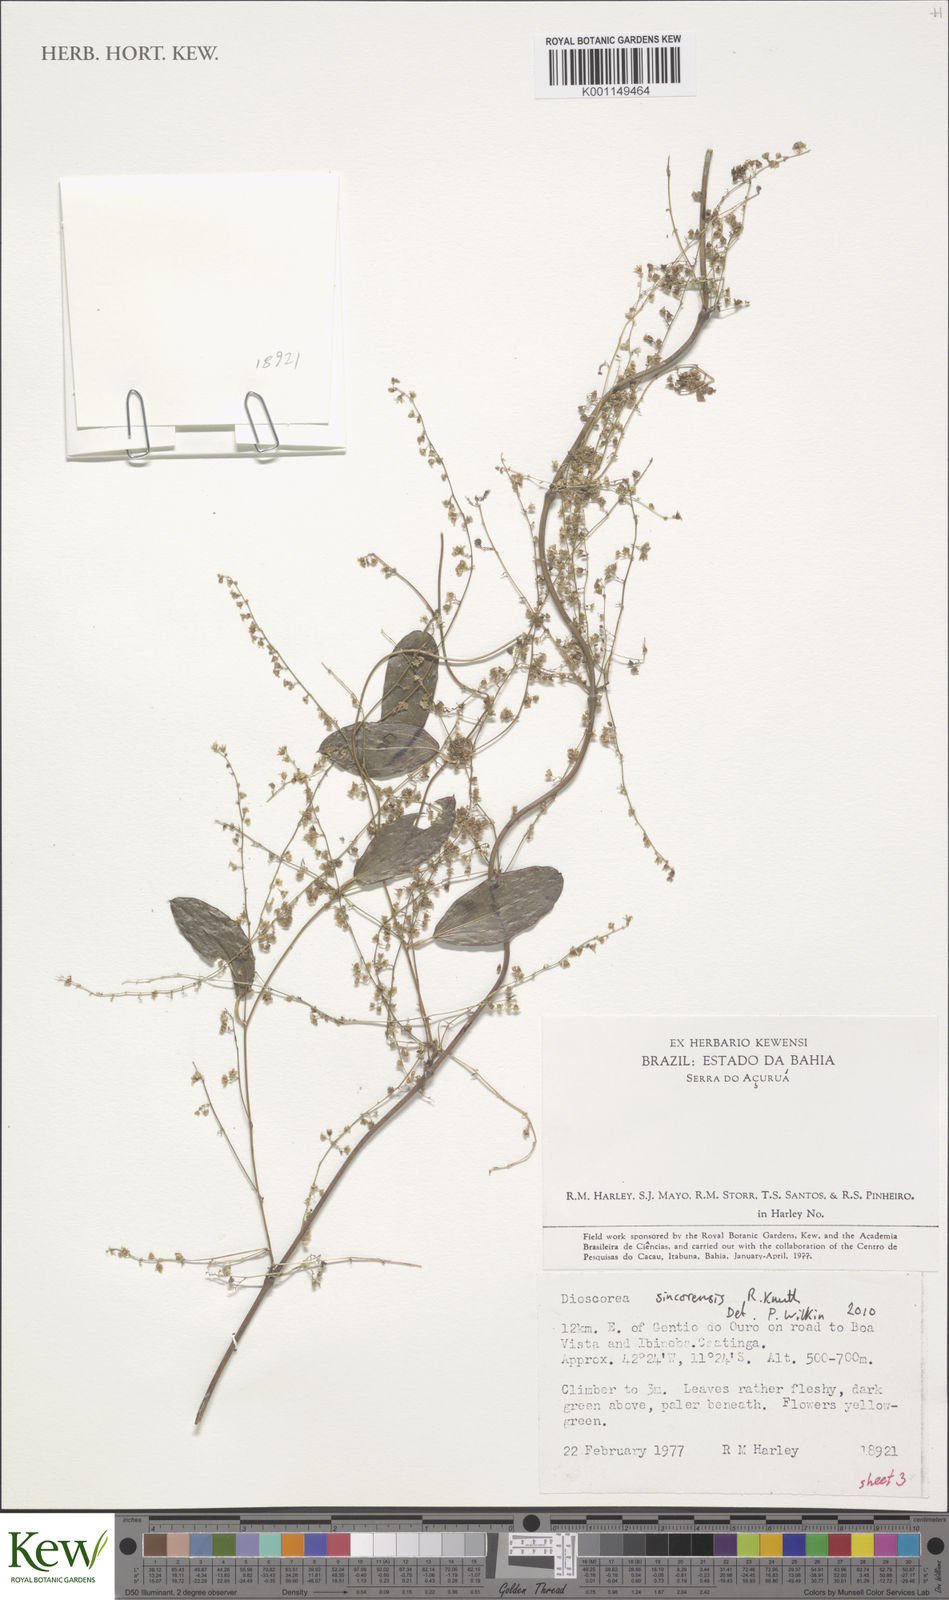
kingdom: Plantae
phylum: Tracheophyta
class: Liliopsida
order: Dioscoreales
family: Dioscoreaceae
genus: Dioscorea
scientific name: Dioscorea campestris
